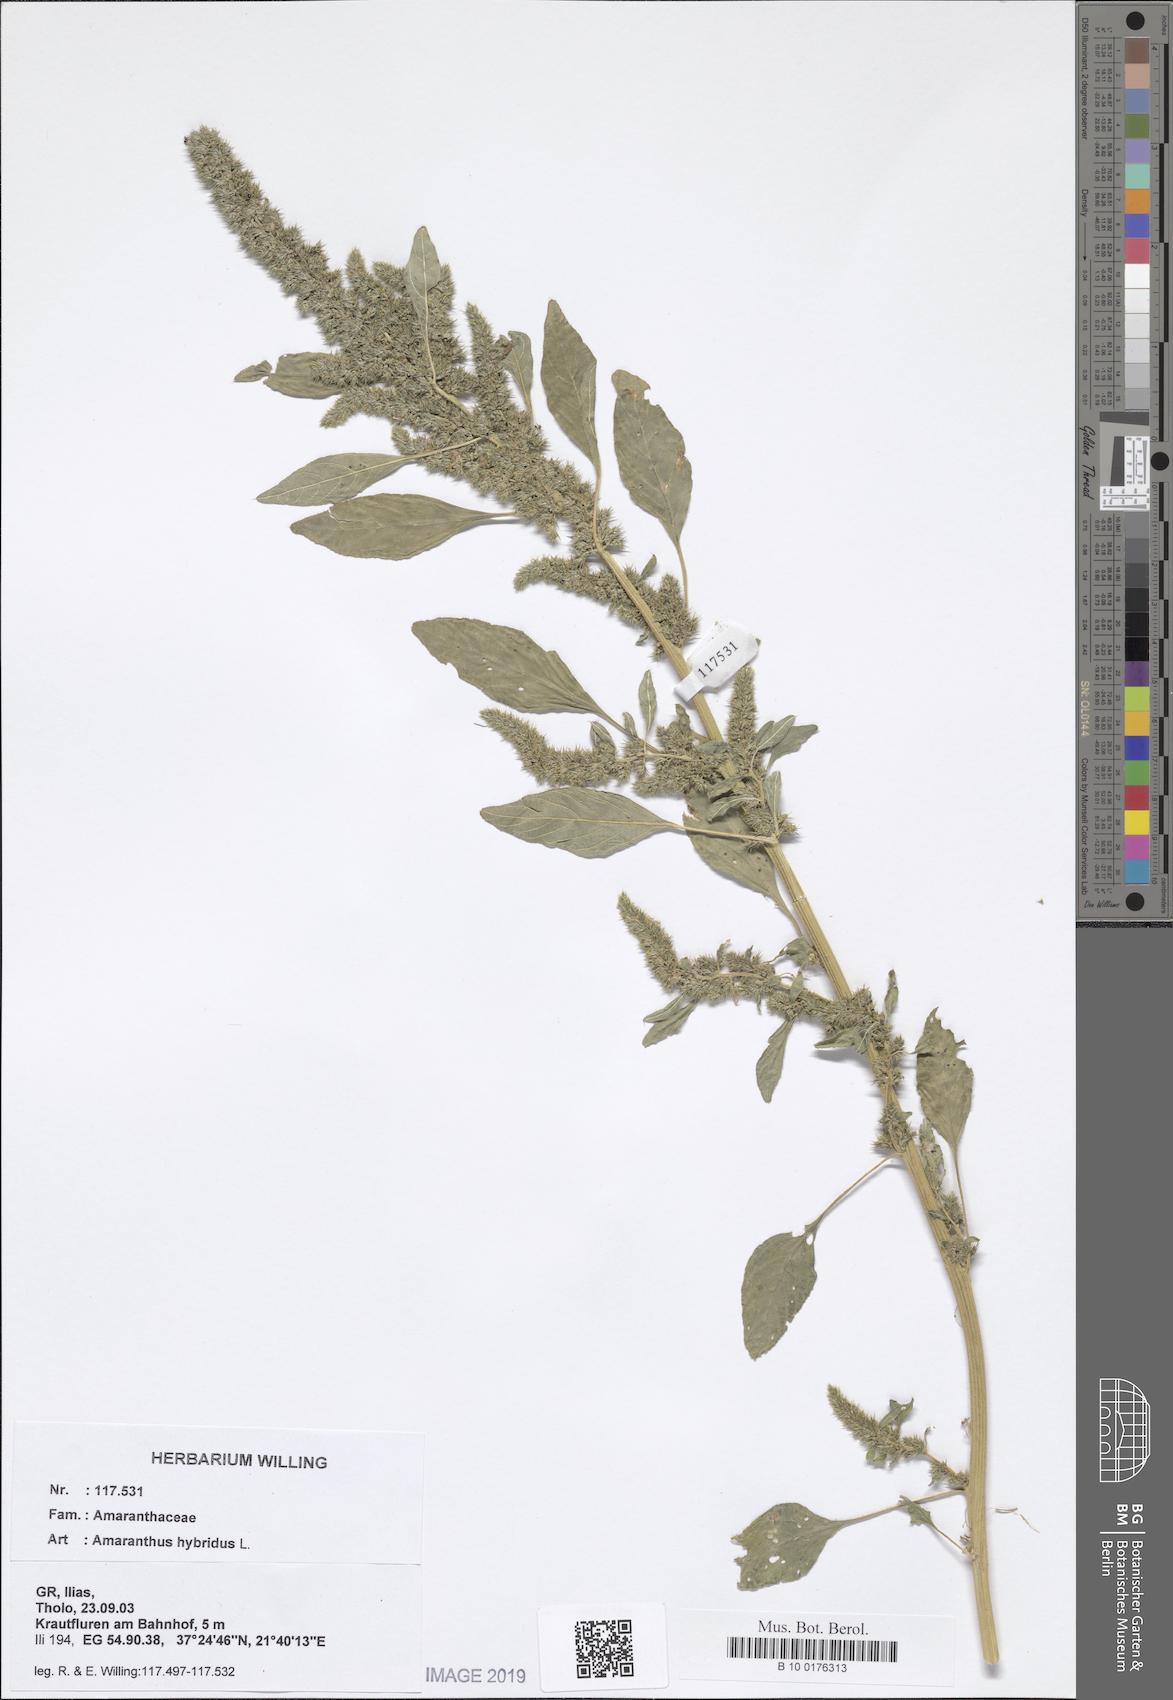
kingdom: Plantae
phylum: Tracheophyta
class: Magnoliopsida
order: Caryophyllales
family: Amaranthaceae
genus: Amaranthus
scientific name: Amaranthus hybridus
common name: Green amaranth
